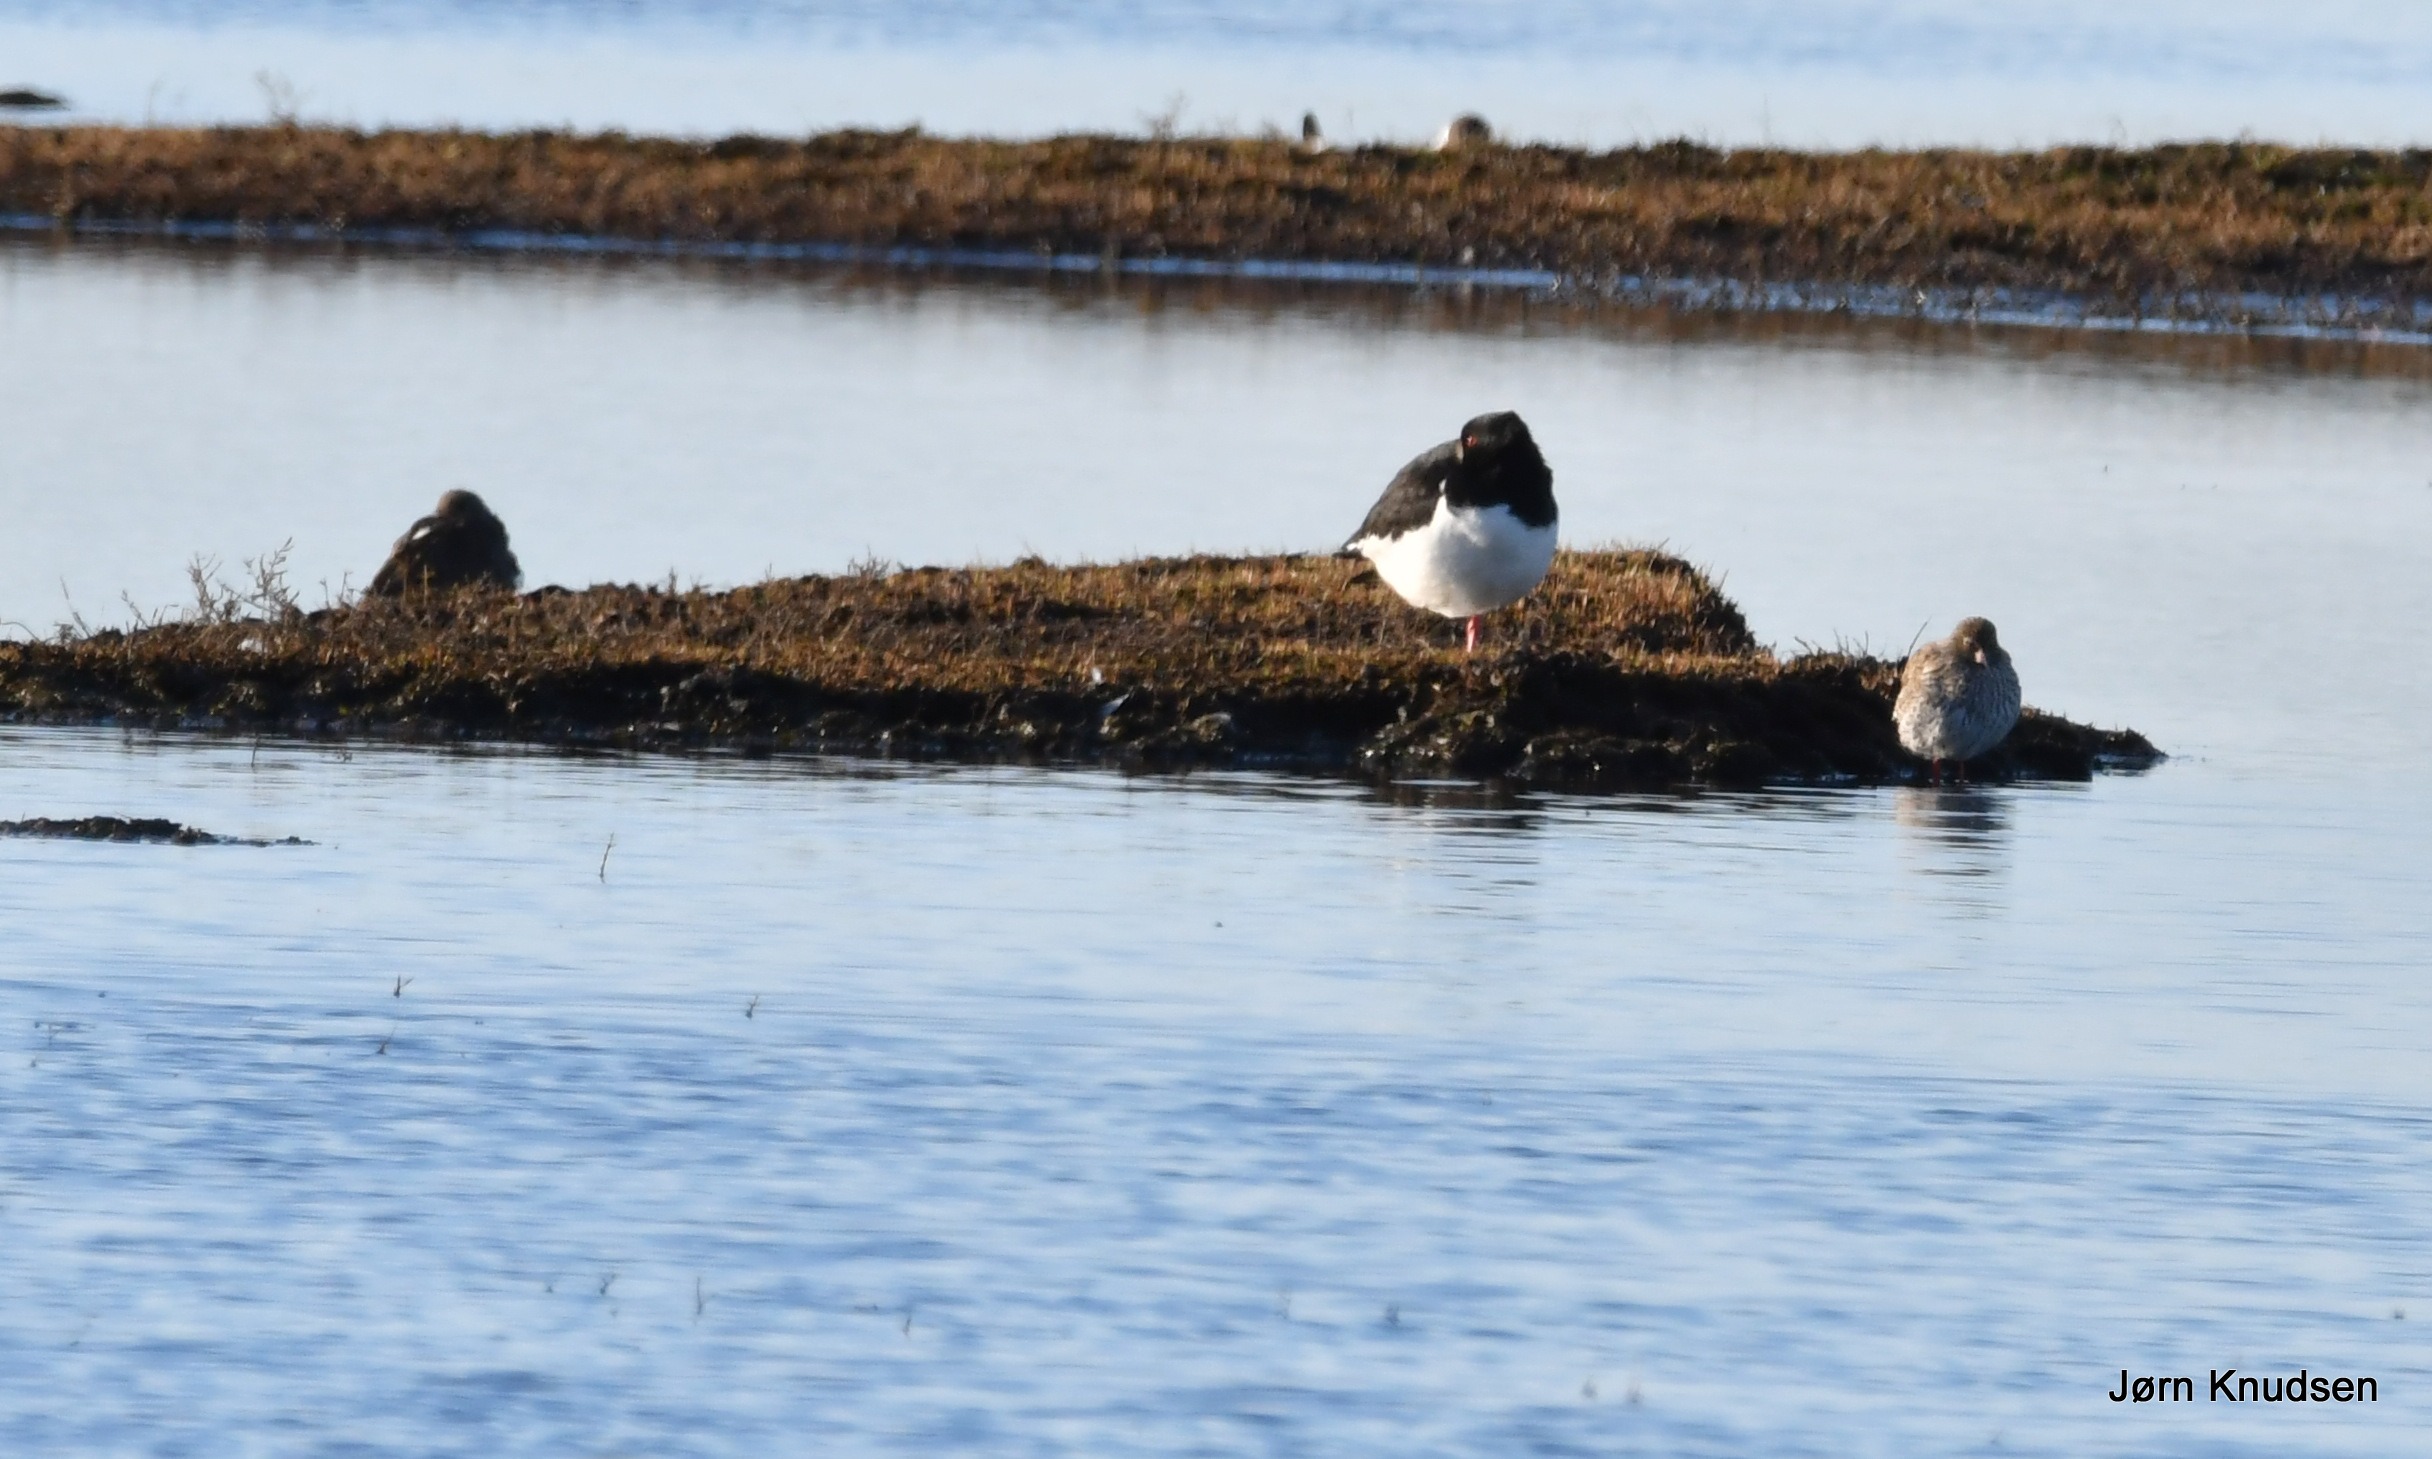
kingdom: Animalia
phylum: Chordata
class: Aves
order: Charadriiformes
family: Haematopodidae
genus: Haematopus
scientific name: Haematopus ostralegus
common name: Strandskade
